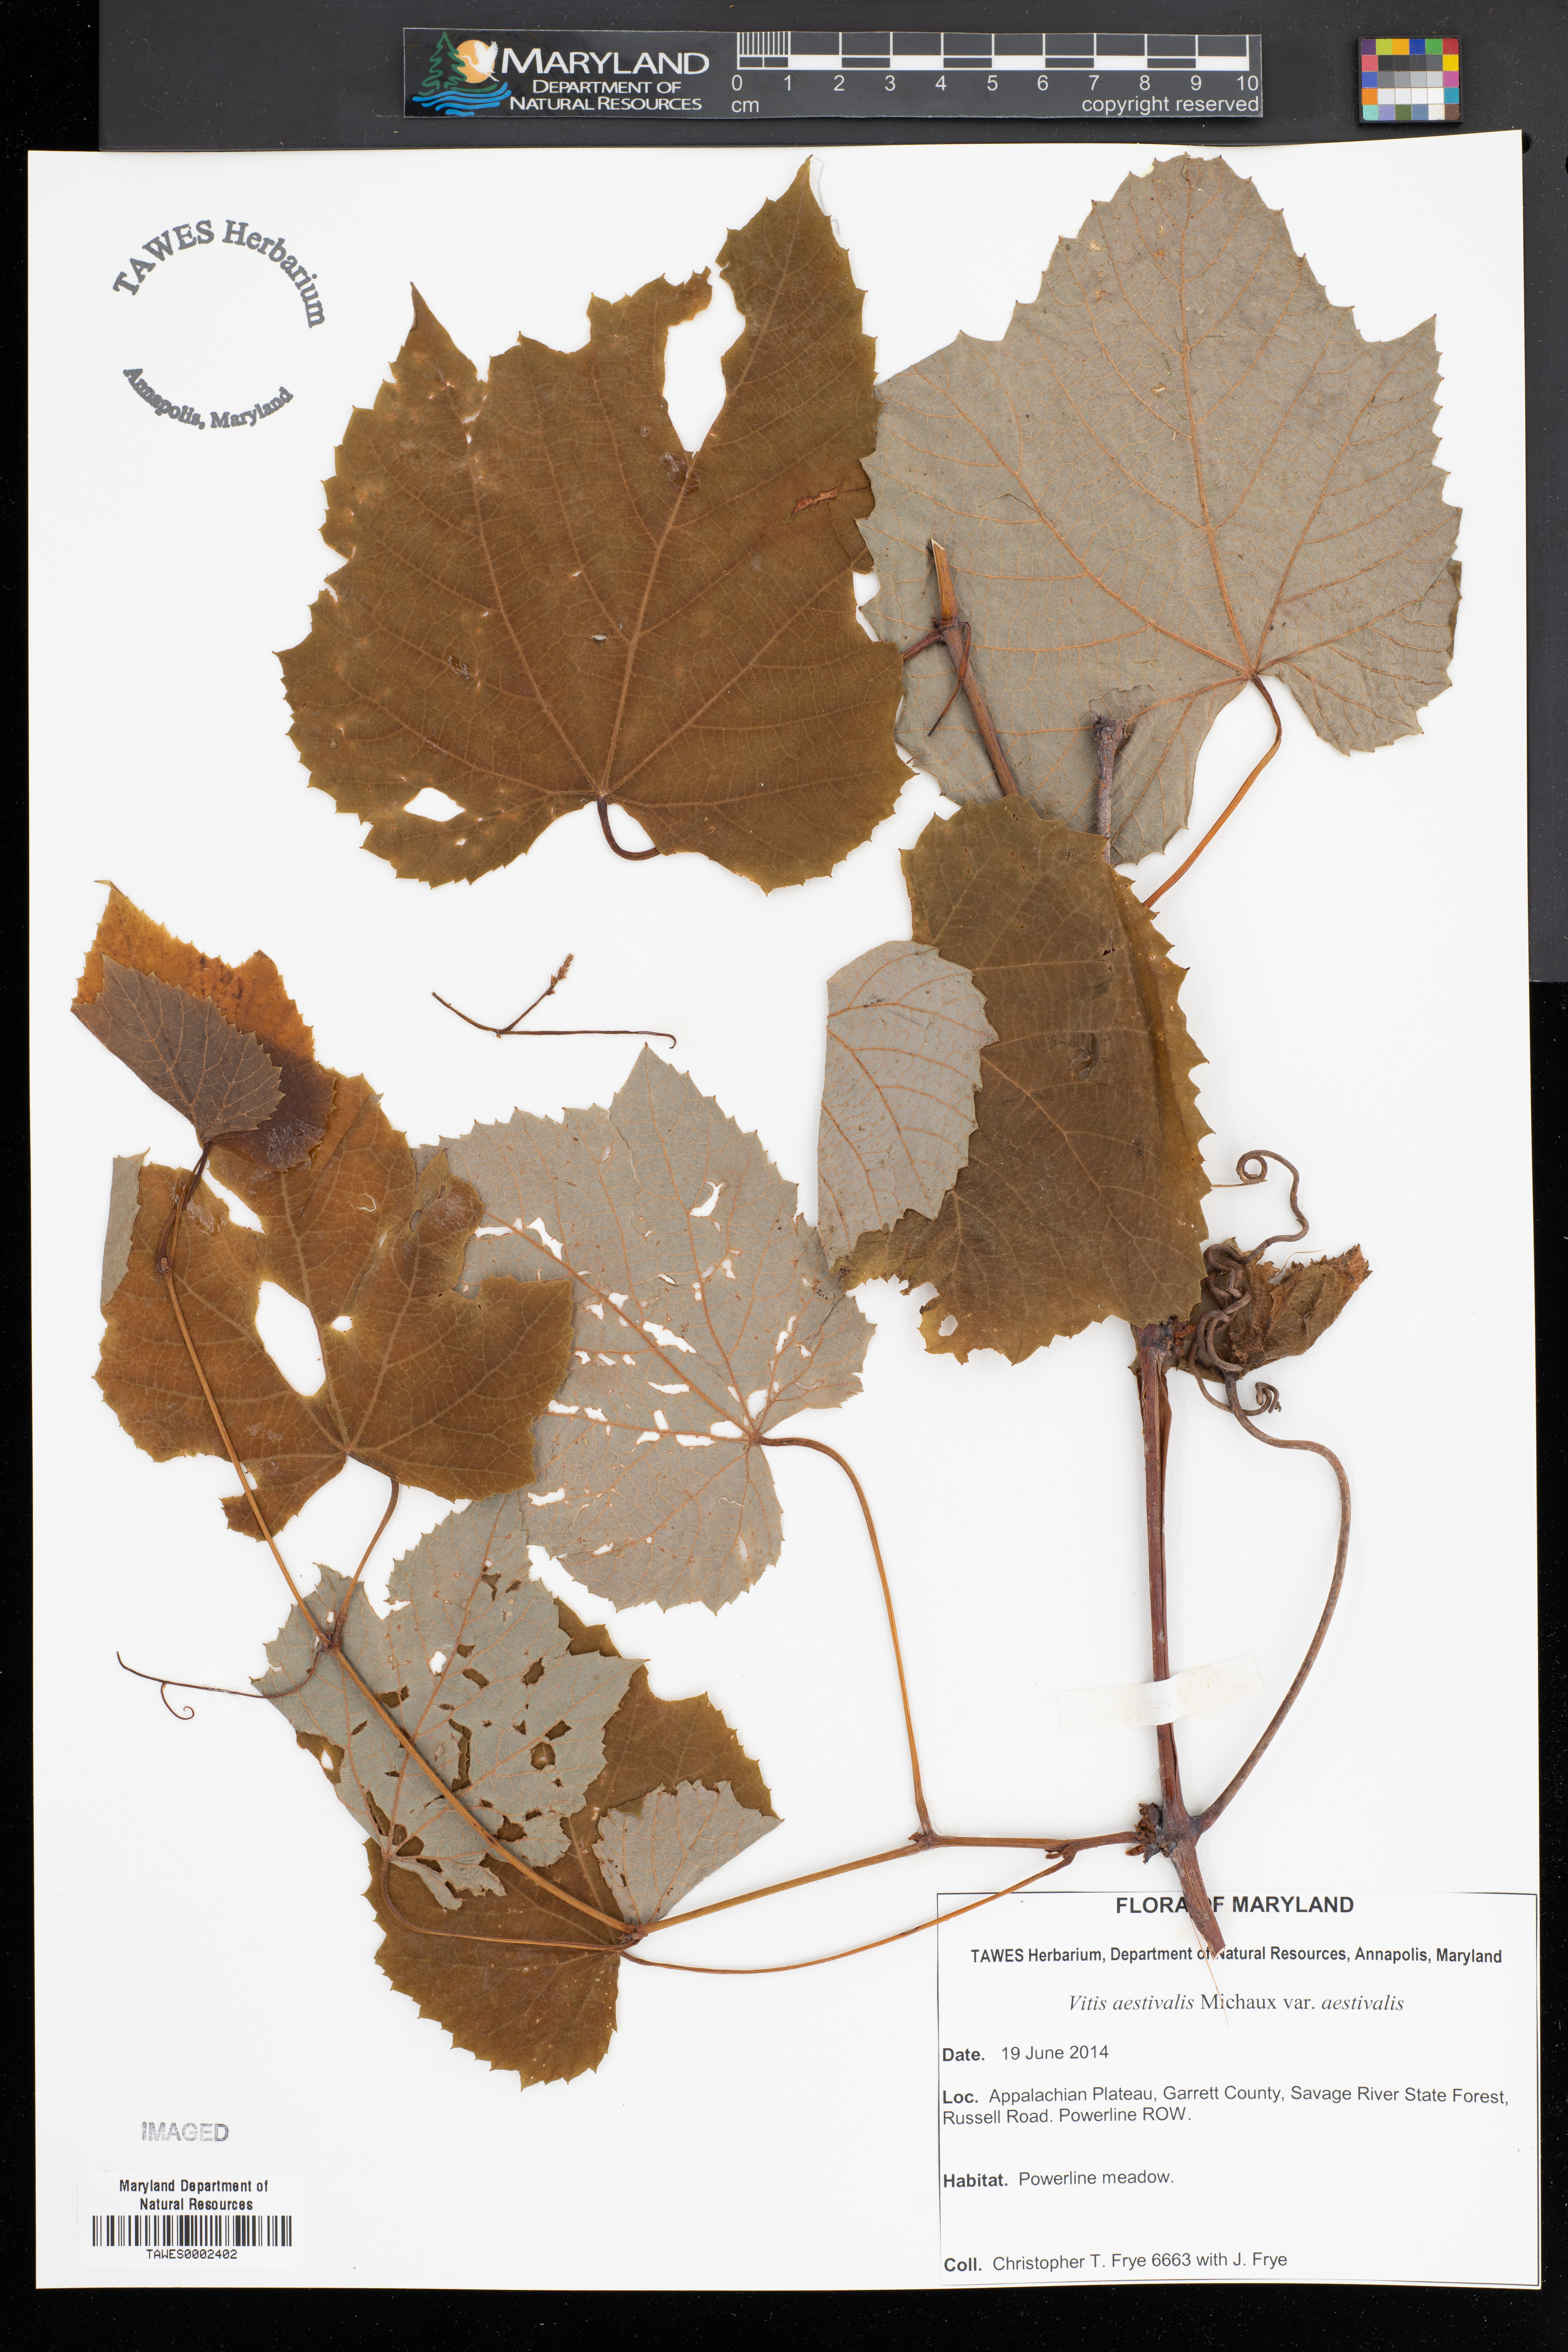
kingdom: Plantae
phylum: Tracheophyta
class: Magnoliopsida
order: Vitales
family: Vitaceae
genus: Vitis
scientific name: Vitis aestivalis
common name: Pigeon grape
